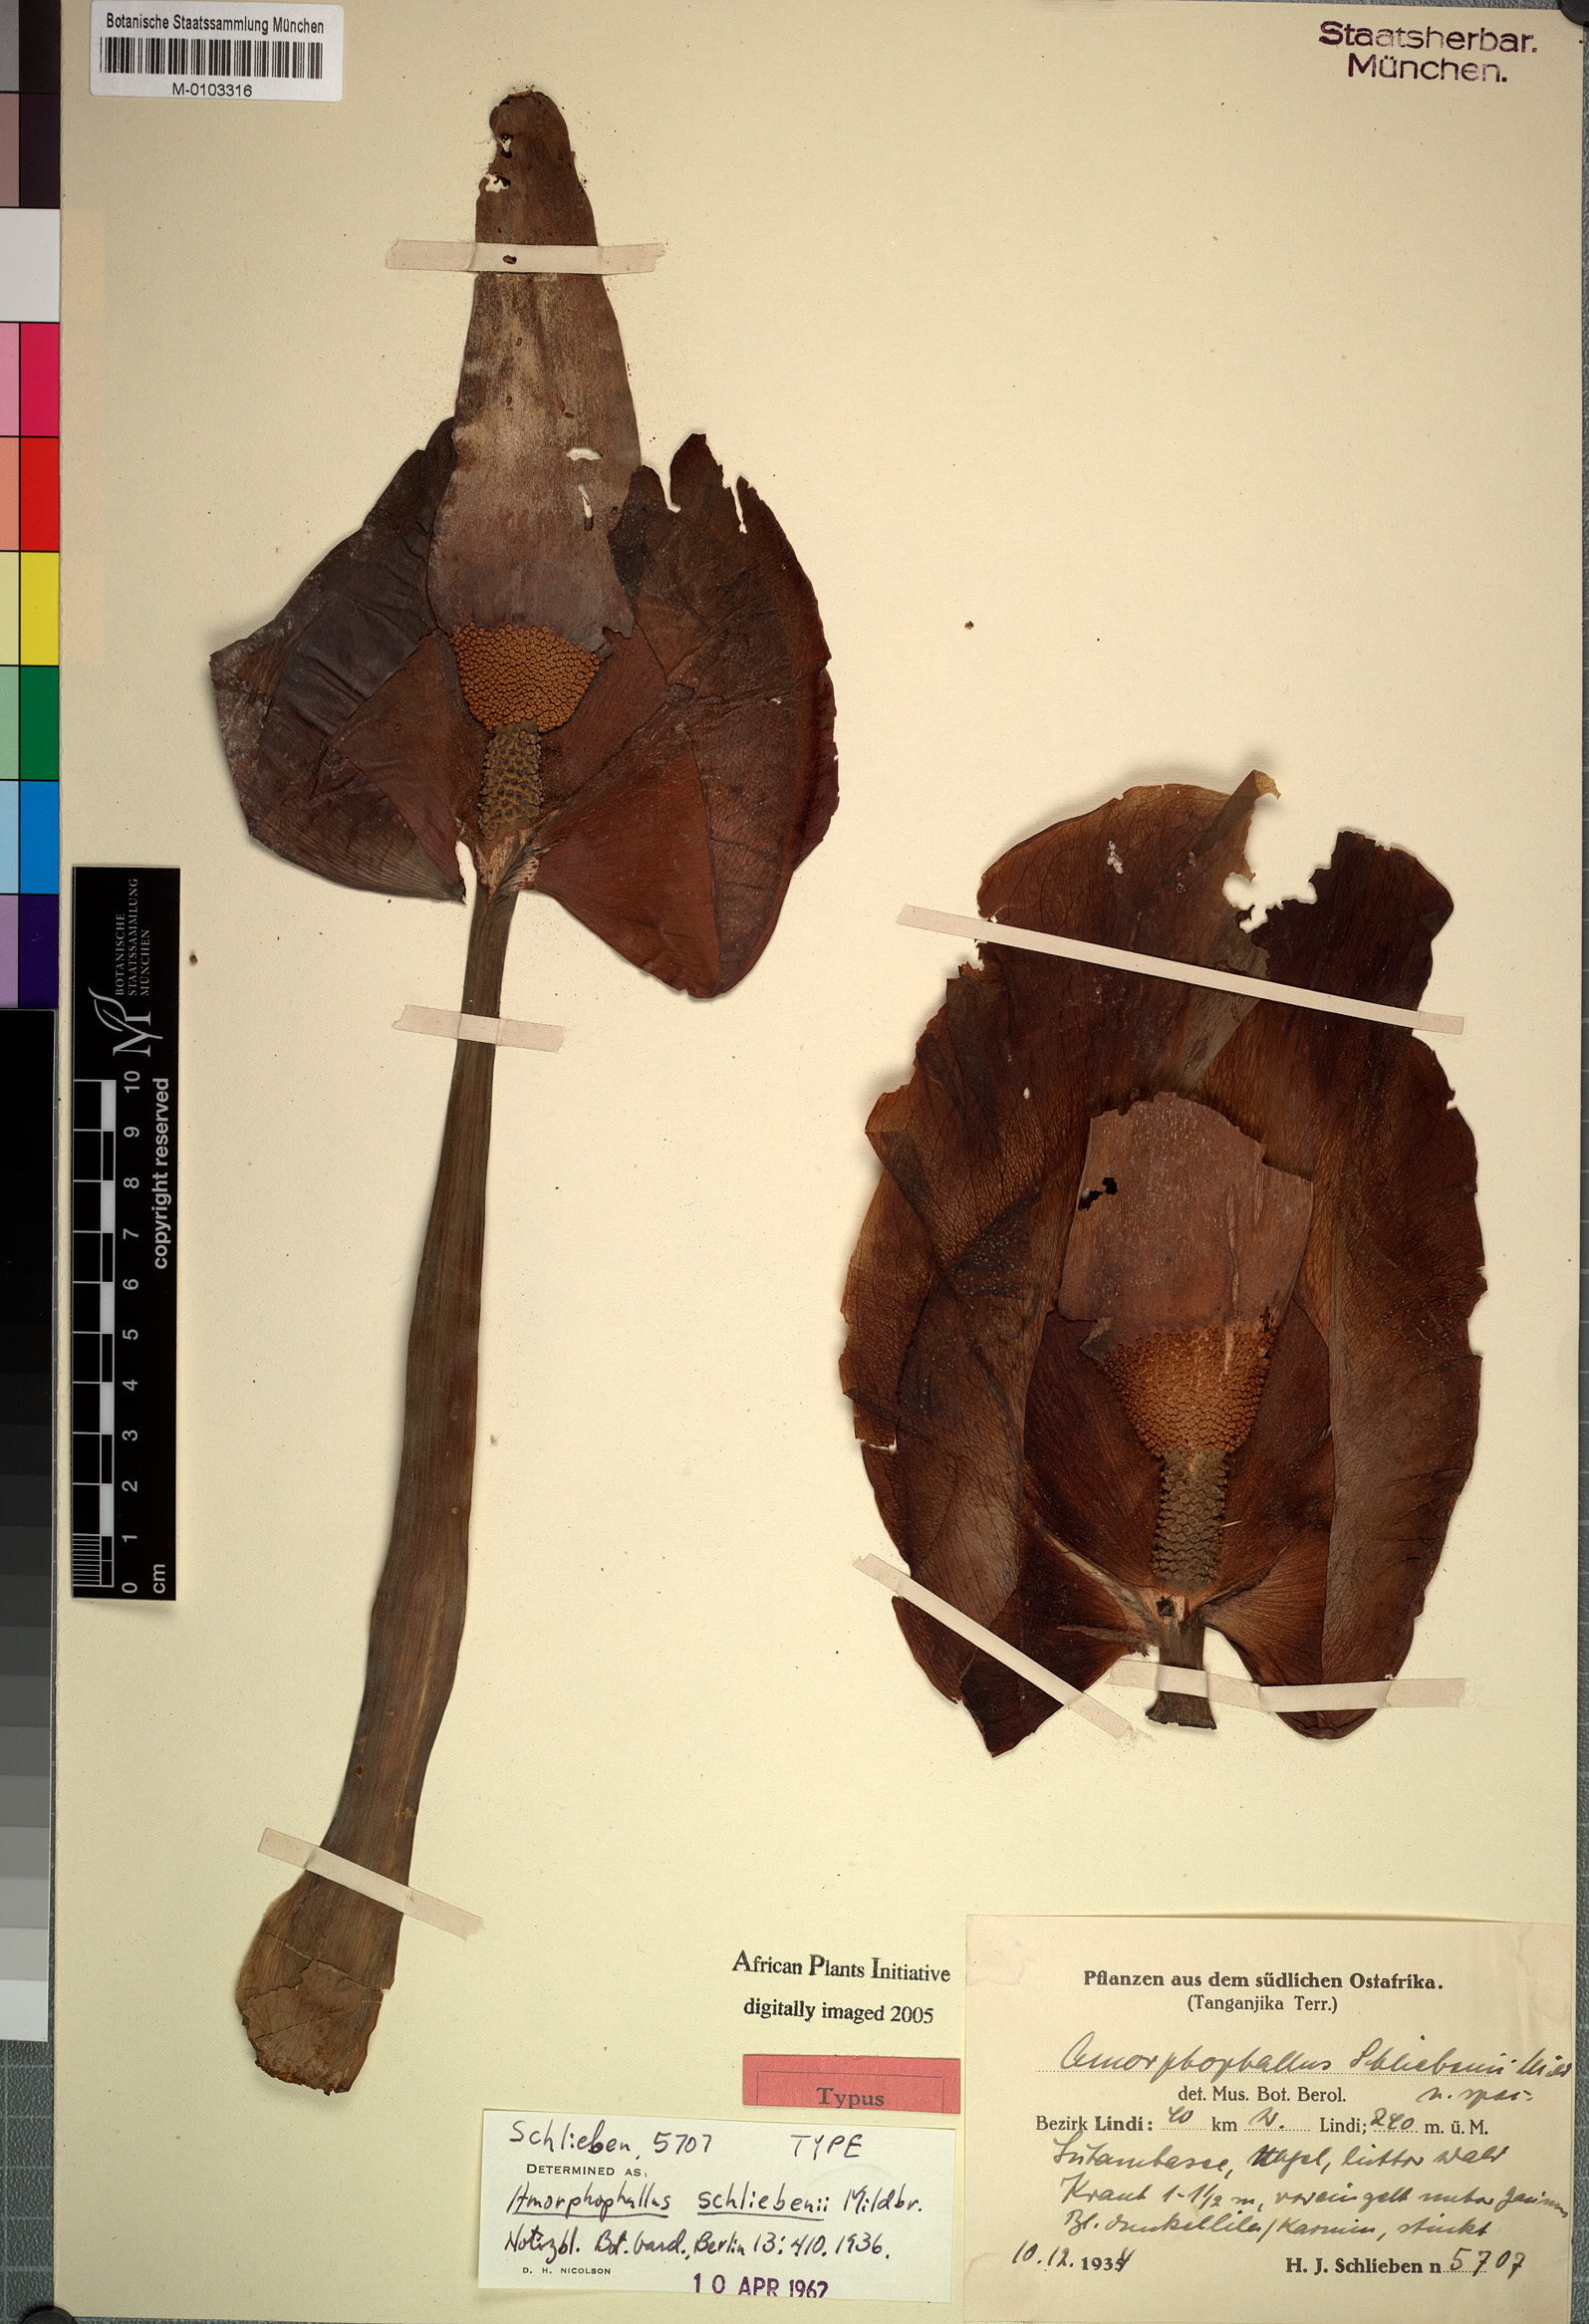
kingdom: Plantae
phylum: Tracheophyta
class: Liliopsida
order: Alismatales
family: Araceae
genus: Amorphophallus
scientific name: Amorphophallus maximus
